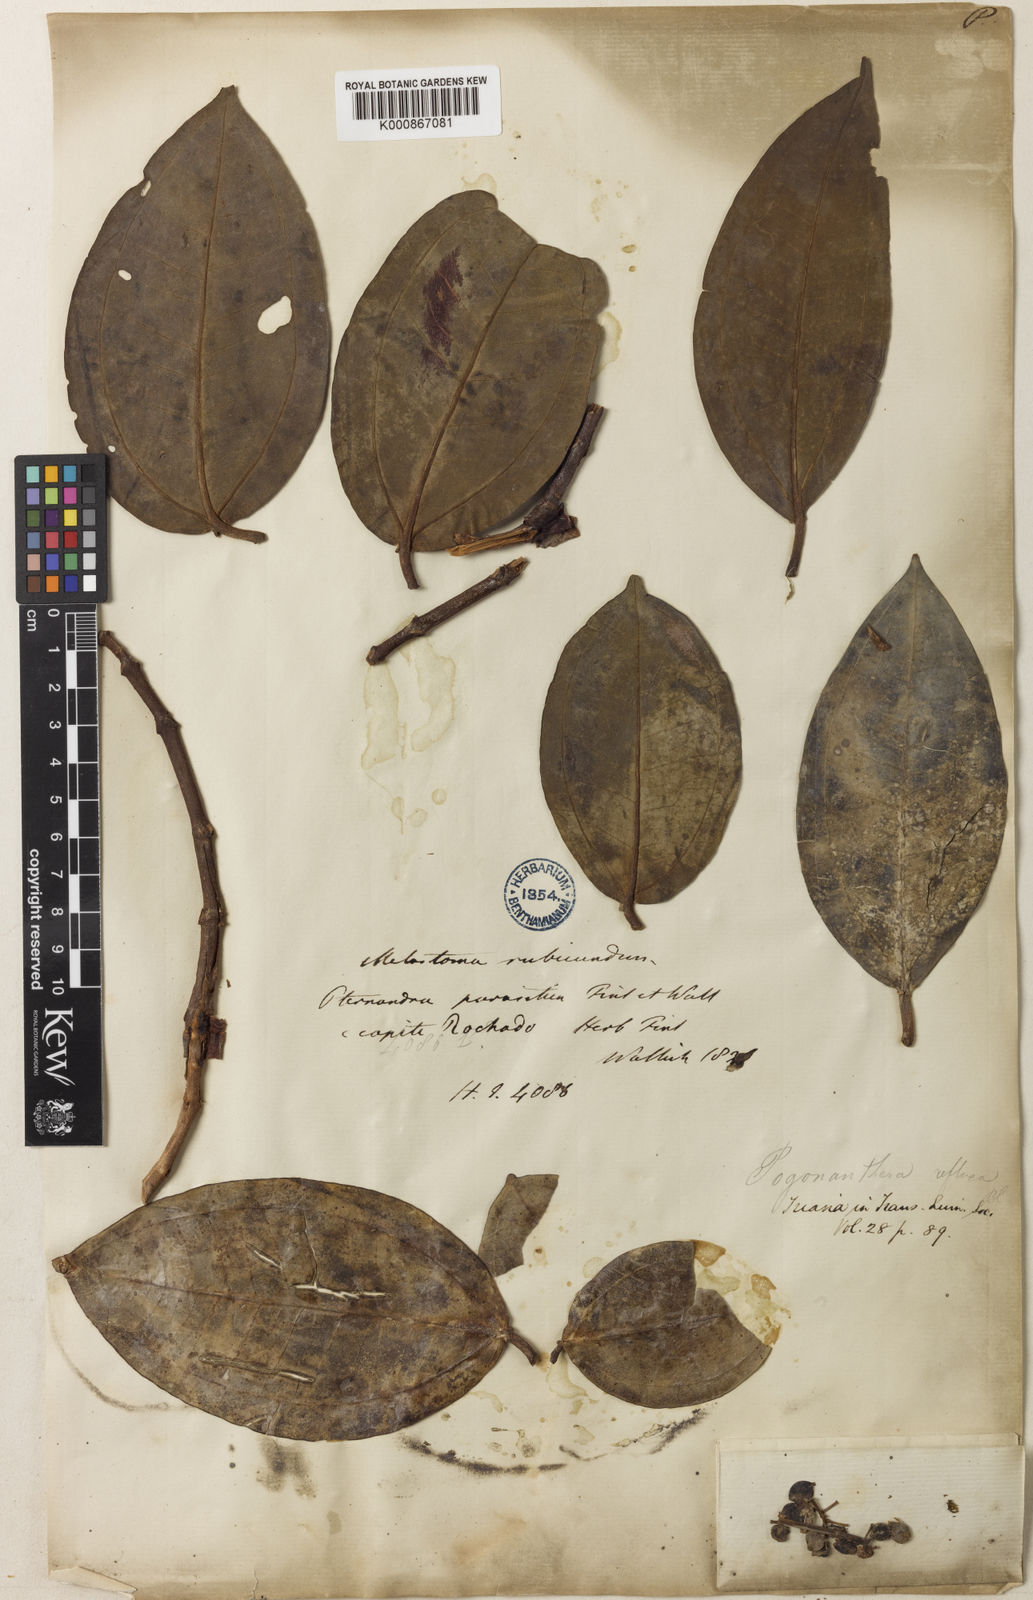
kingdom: Plantae
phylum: Tracheophyta
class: Magnoliopsida
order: Myrtales
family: Melastomataceae
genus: Medinilla
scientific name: Medinilla rubicunda
